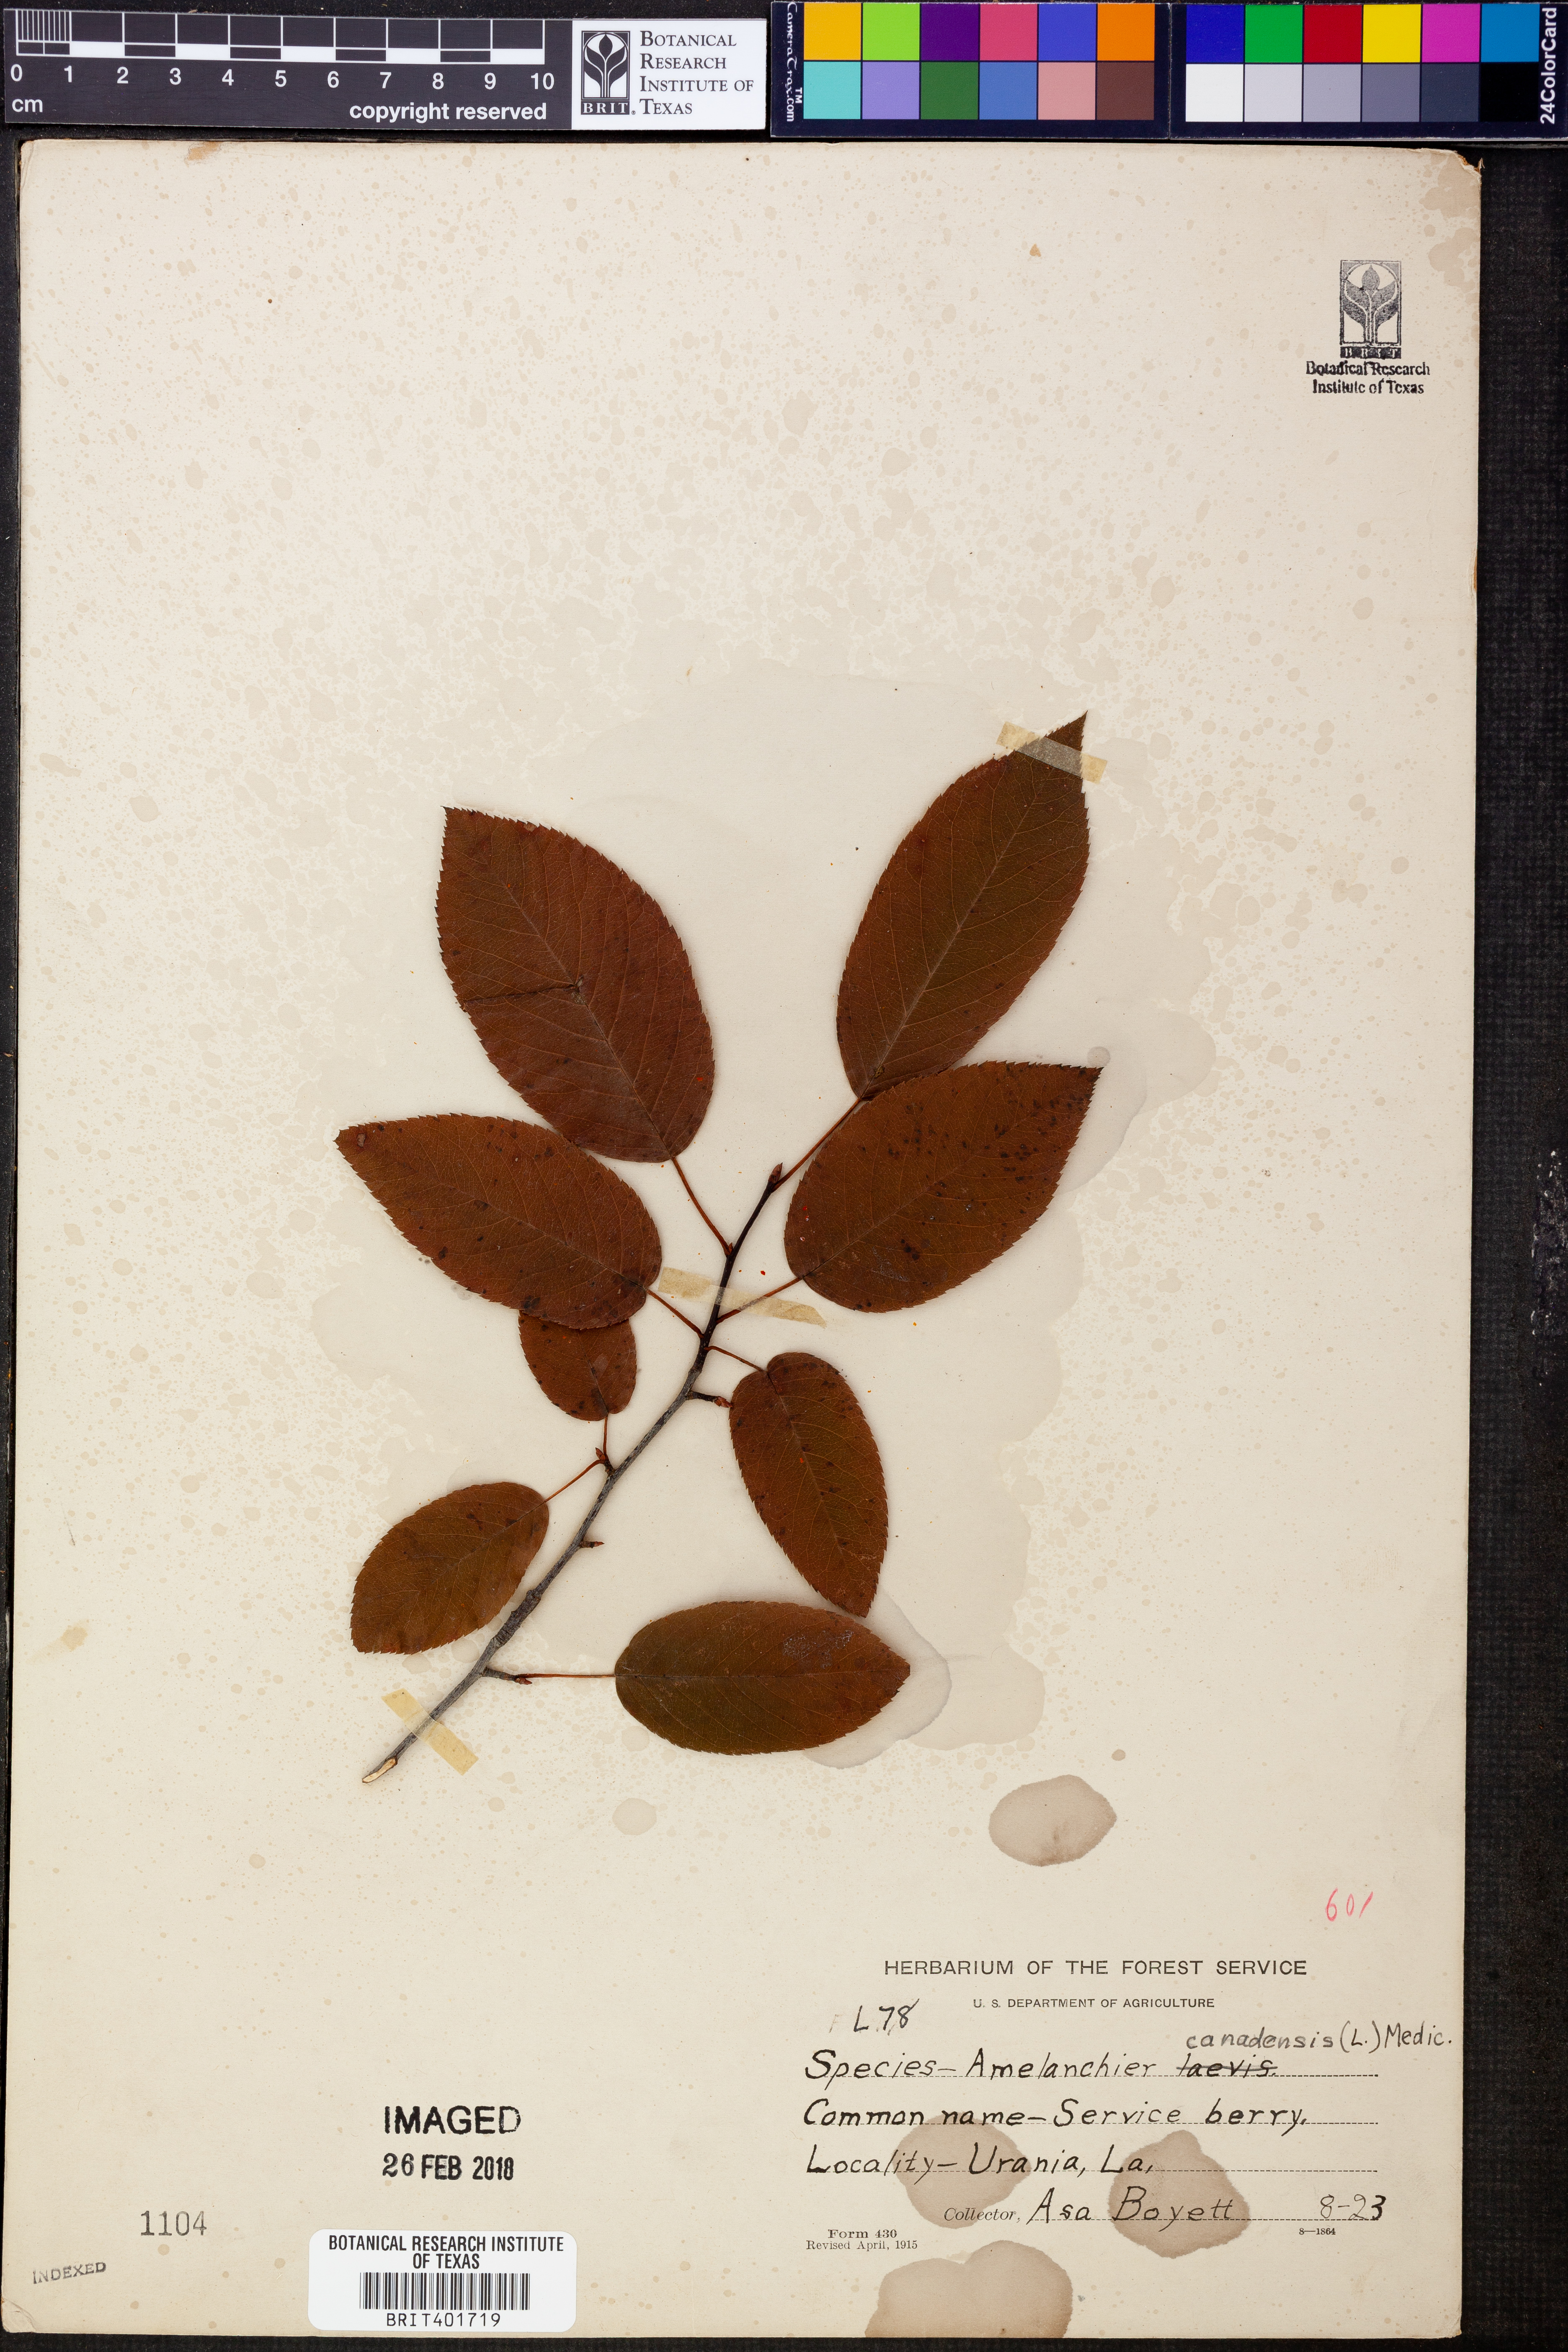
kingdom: Plantae
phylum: Tracheophyta
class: Magnoliopsida
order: Rosales
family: Rosaceae
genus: Amelanchier
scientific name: Amelanchier canadensis
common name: Thicket serviceberry
